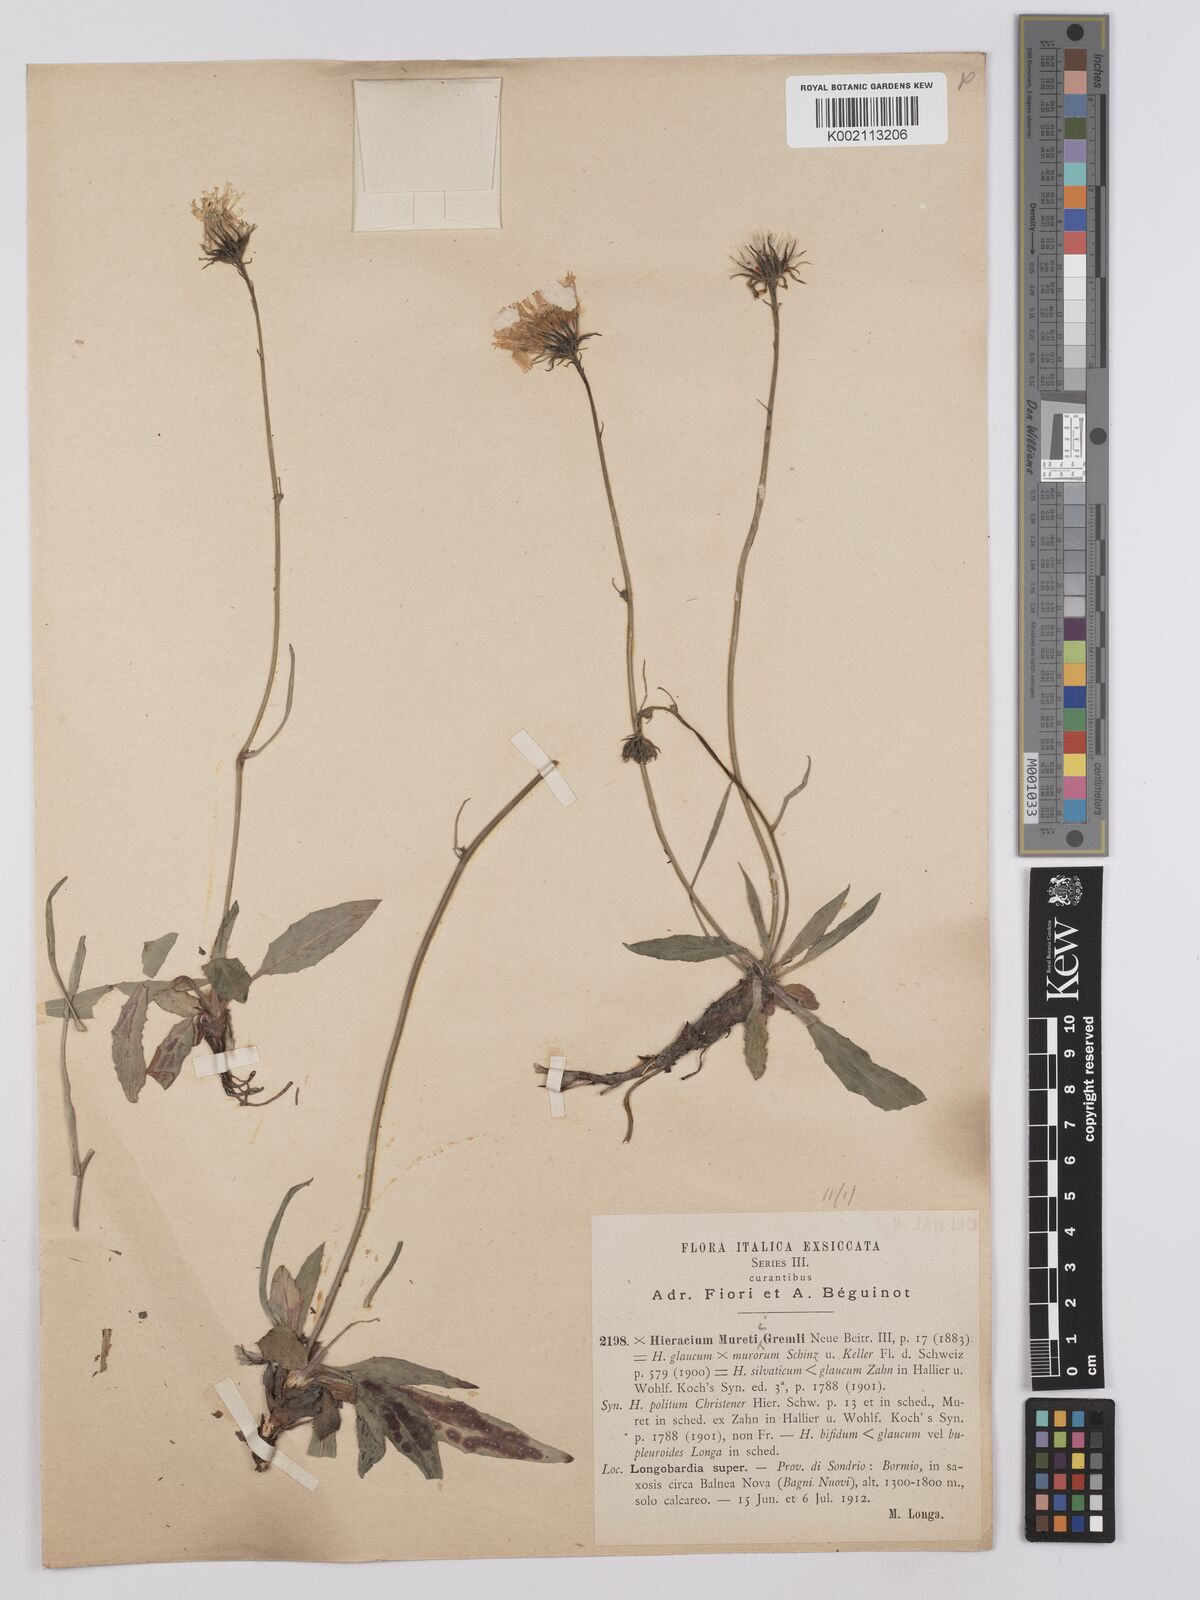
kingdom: Plantae
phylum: Tracheophyta
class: Magnoliopsida
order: Asterales
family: Asteraceae
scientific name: Asteraceae
